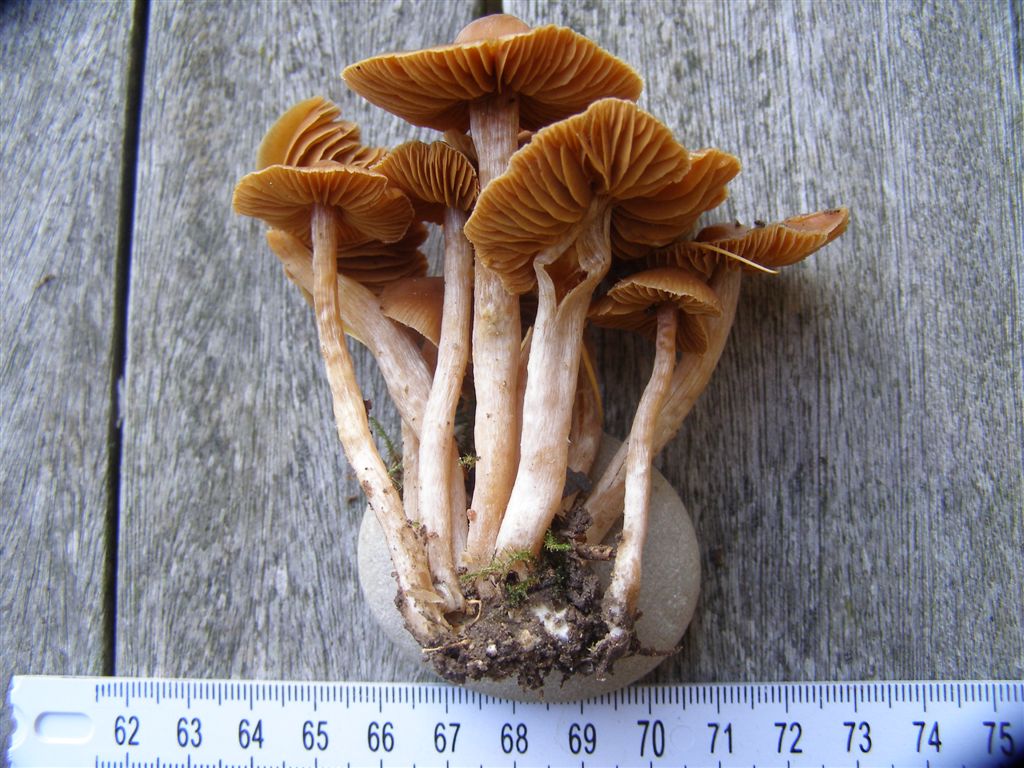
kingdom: Fungi
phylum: Basidiomycota
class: Agaricomycetes
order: Agaricales
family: Cortinariaceae
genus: Cortinarius
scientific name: Cortinarius obtusorum
